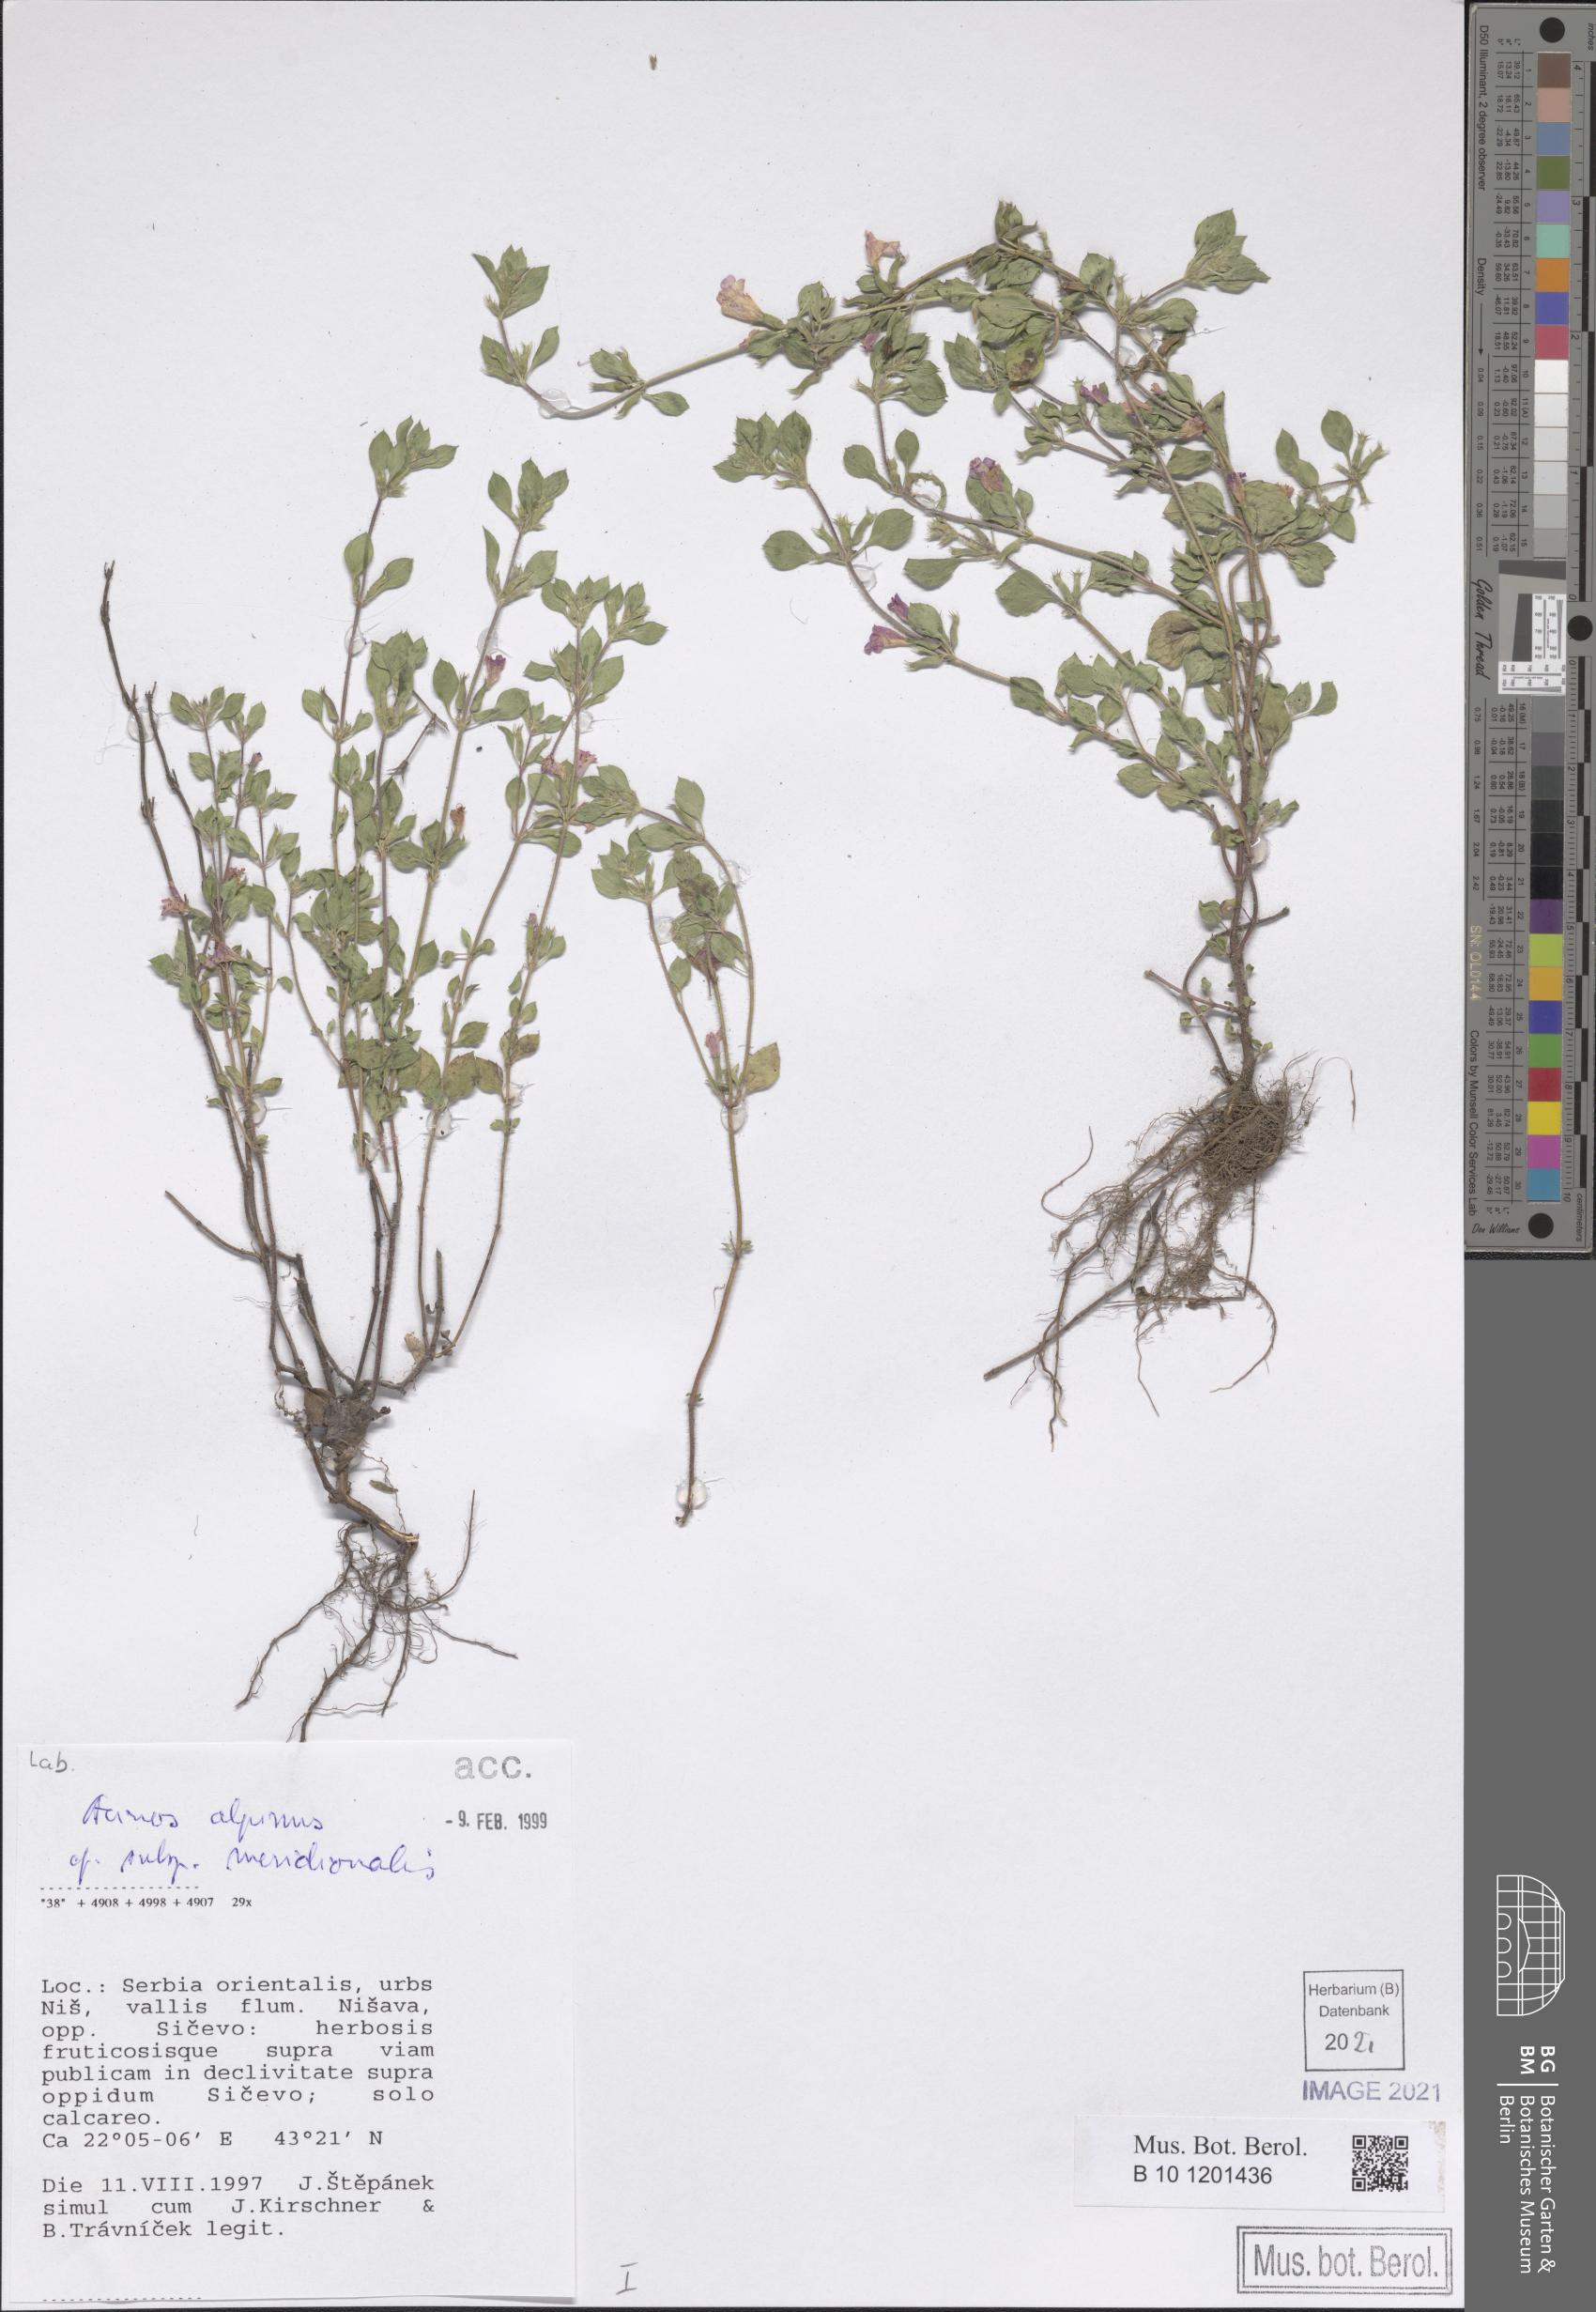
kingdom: Plantae
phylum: Tracheophyta
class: Magnoliopsida
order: Lamiales
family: Lamiaceae
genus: Clinopodium
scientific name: Clinopodium alpinum
